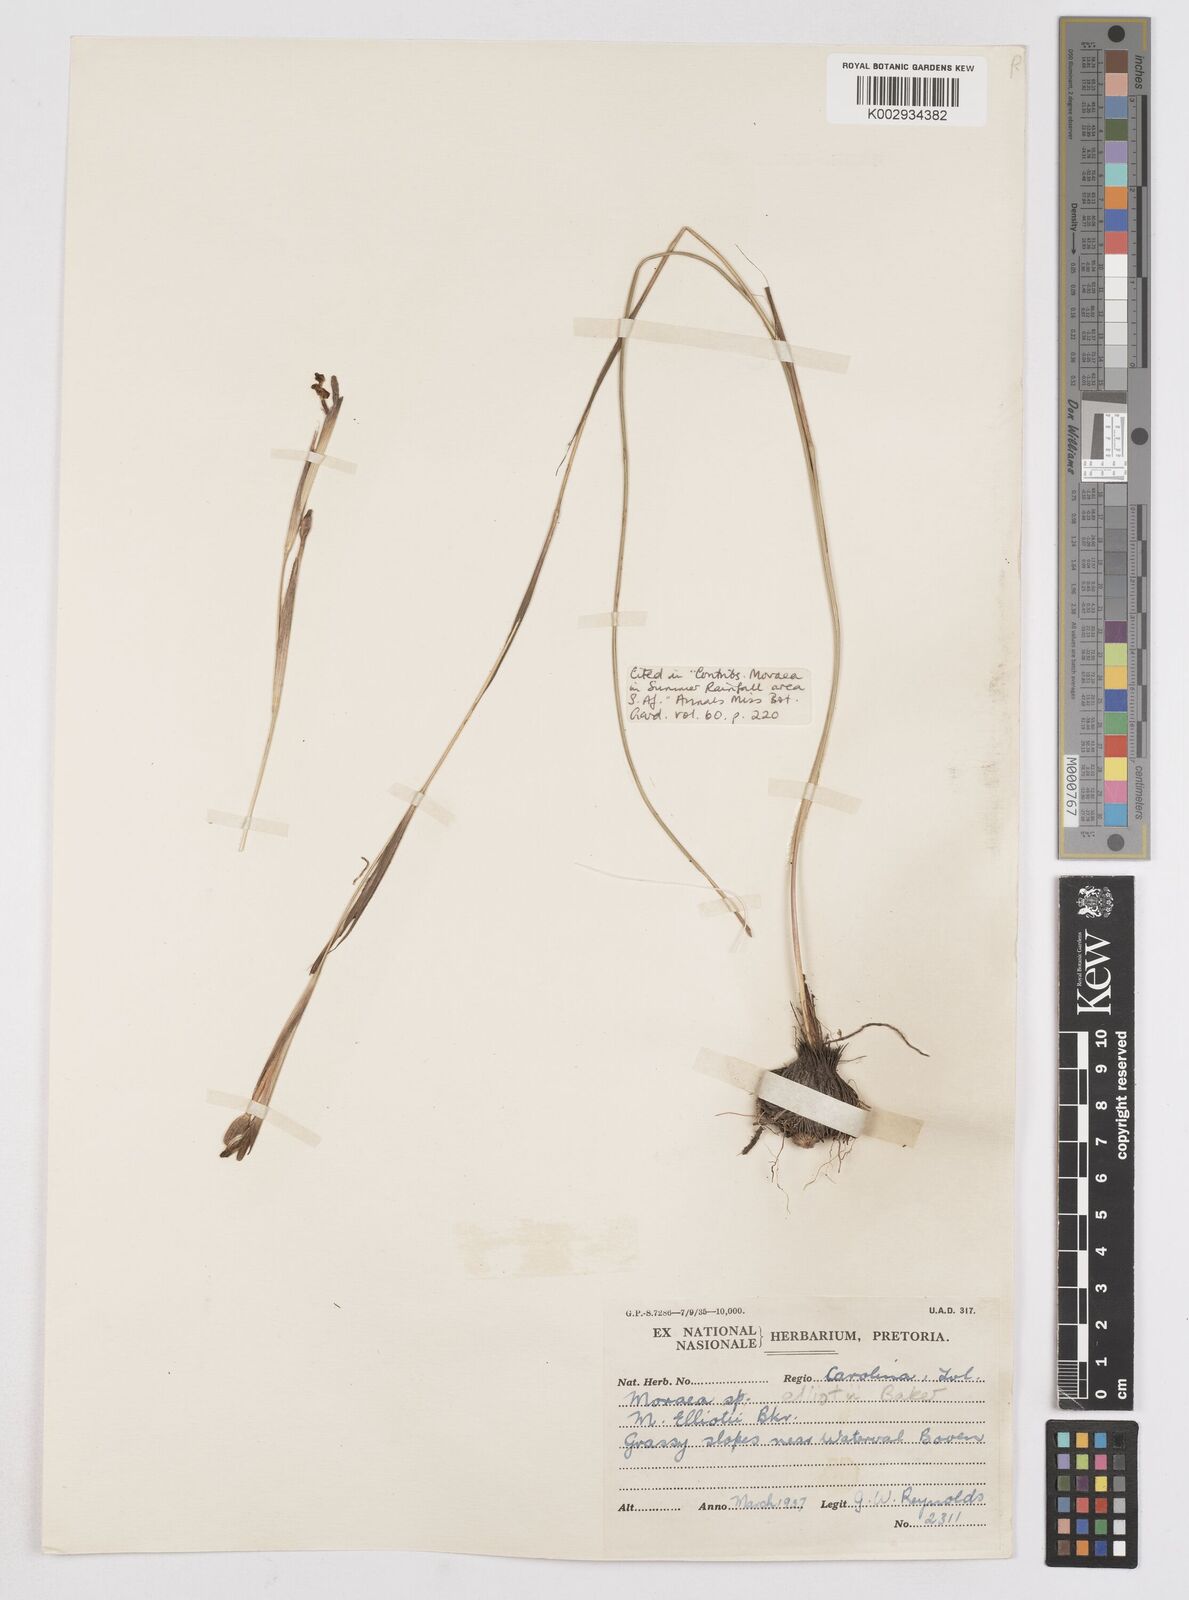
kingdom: Plantae
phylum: Tracheophyta
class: Liliopsida
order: Asparagales
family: Iridaceae
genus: Moraea
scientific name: Moraea elliotii
